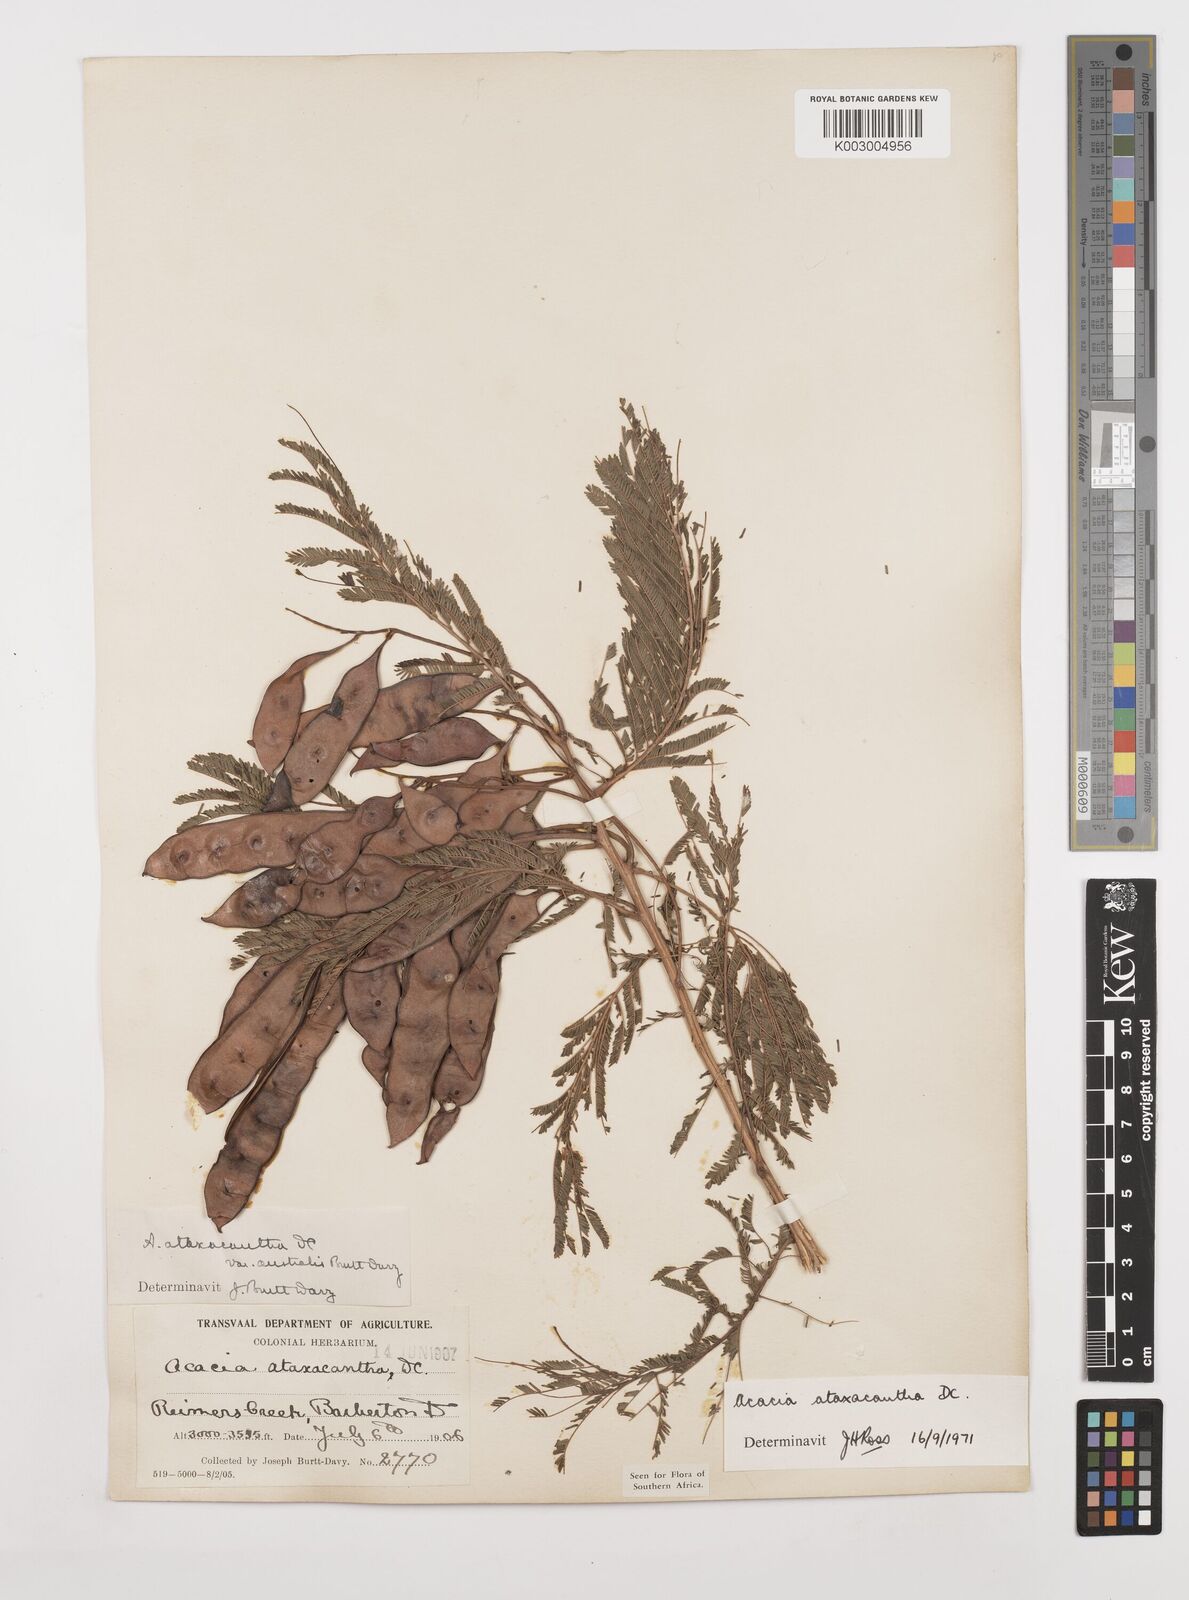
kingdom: Plantae
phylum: Tracheophyta
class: Magnoliopsida
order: Fabales
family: Fabaceae
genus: Senegalia
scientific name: Senegalia ataxacantha
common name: Flame acacia
